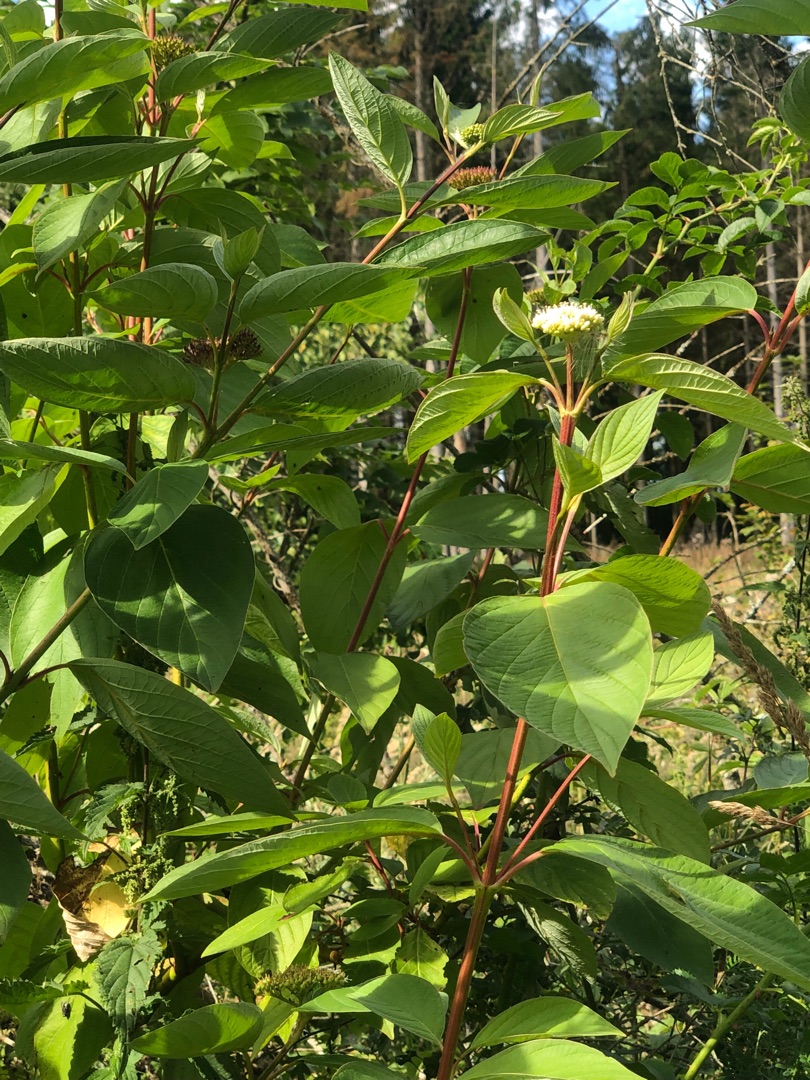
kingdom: Plantae
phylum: Tracheophyta
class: Magnoliopsida
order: Cornales
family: Cornaceae
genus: Cornus
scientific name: Cornus sericea
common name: Krybende kornel
